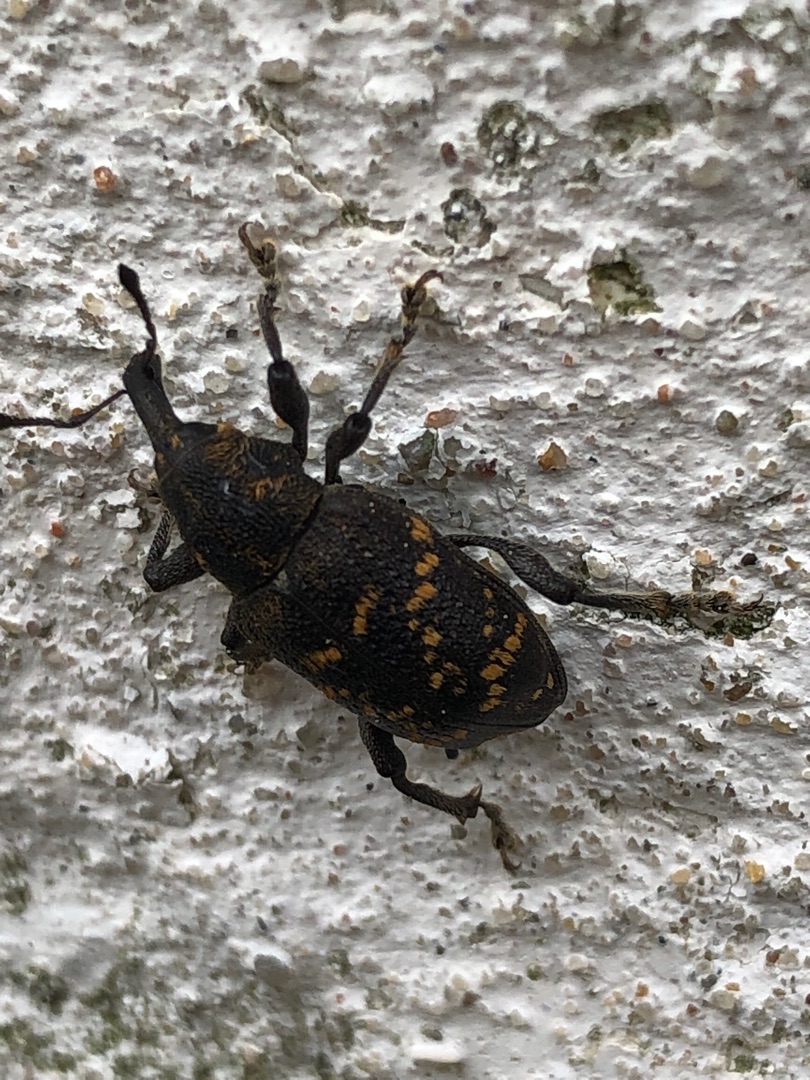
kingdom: Animalia
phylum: Arthropoda
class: Insecta
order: Coleoptera
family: Curculionidae
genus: Hylobius
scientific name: Hylobius abietis
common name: Stor nåletræsnudebille
